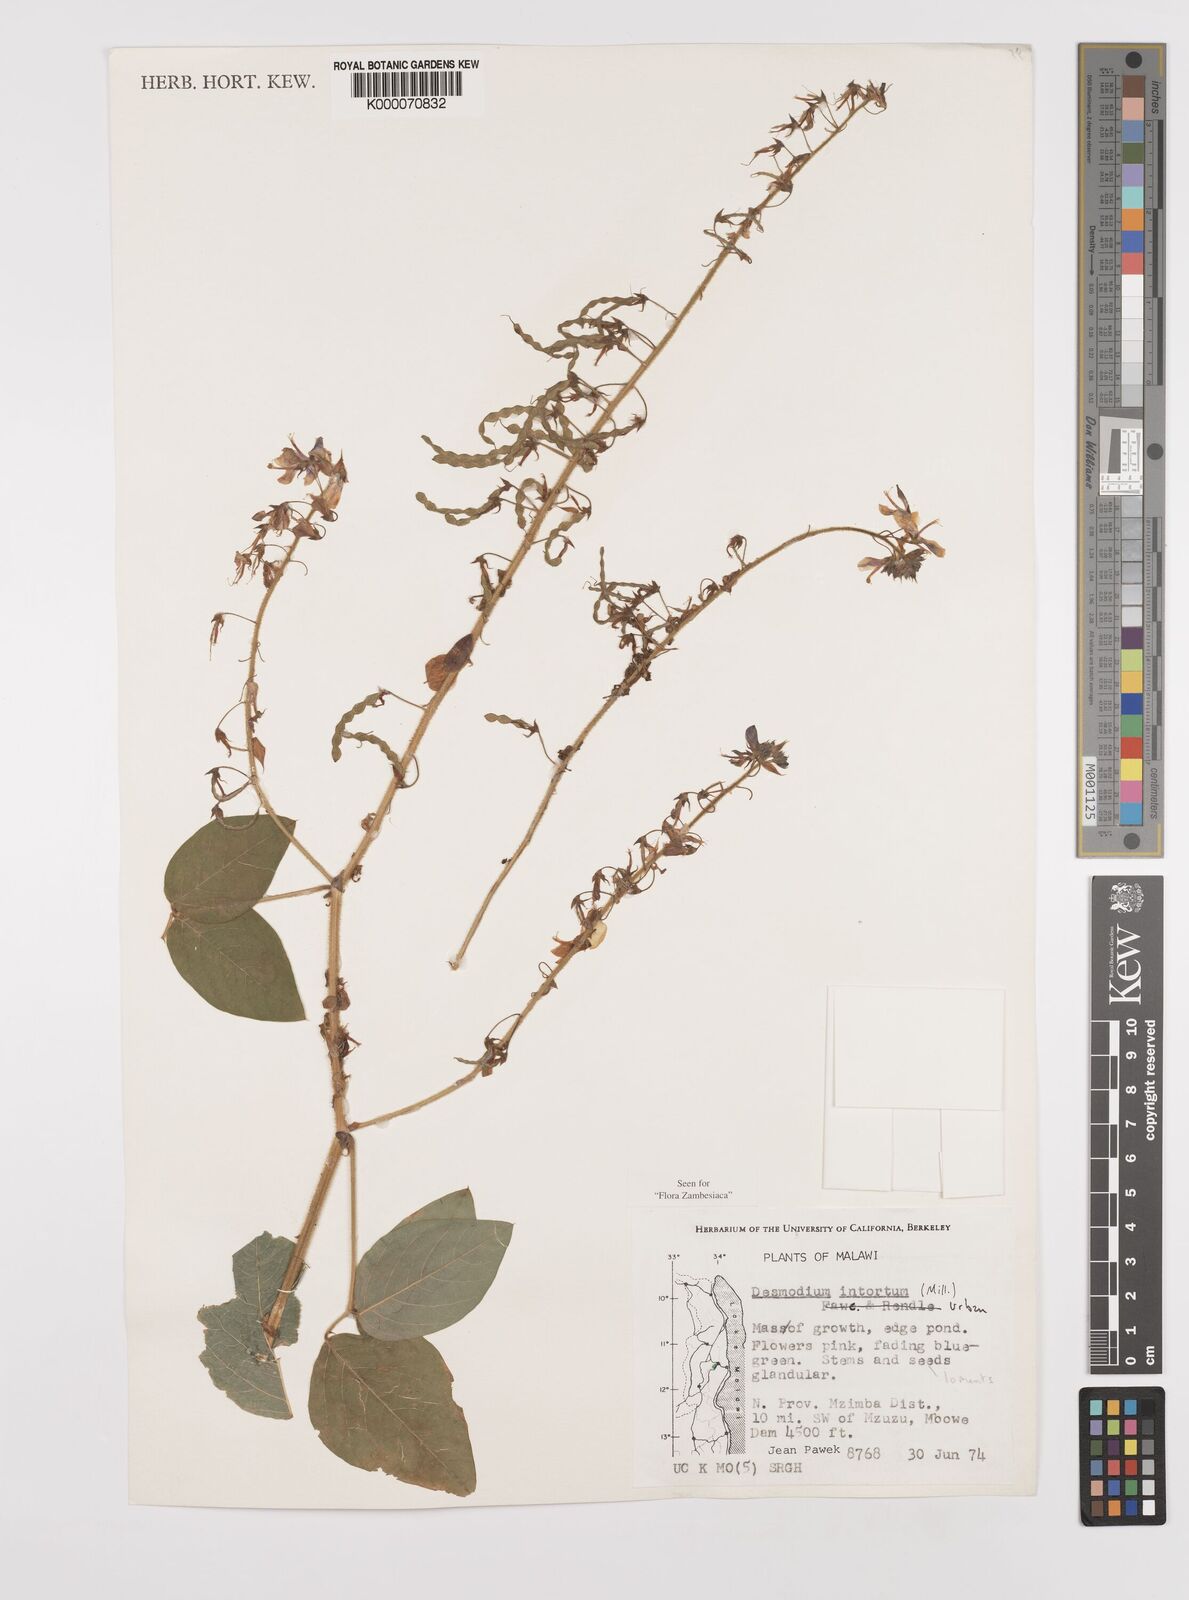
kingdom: Plantae
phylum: Tracheophyta
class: Magnoliopsida
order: Fabales
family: Fabaceae
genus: Desmodium
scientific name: Desmodium intortum
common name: Greenleaf ticktrefoil
